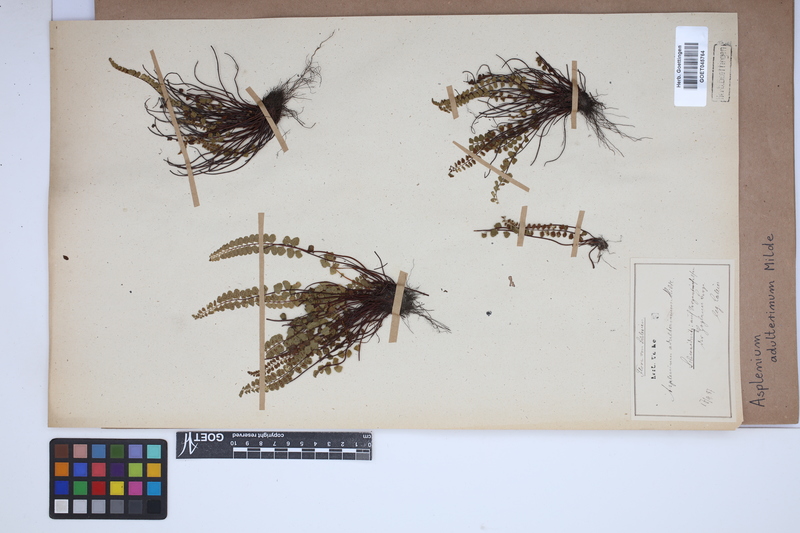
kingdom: Plantae
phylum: Tracheophyta
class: Polypodiopsida
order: Polypodiales
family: Aspleniaceae
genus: Asplenium
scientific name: Asplenium adulterinum
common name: Adulterated spleenwort
